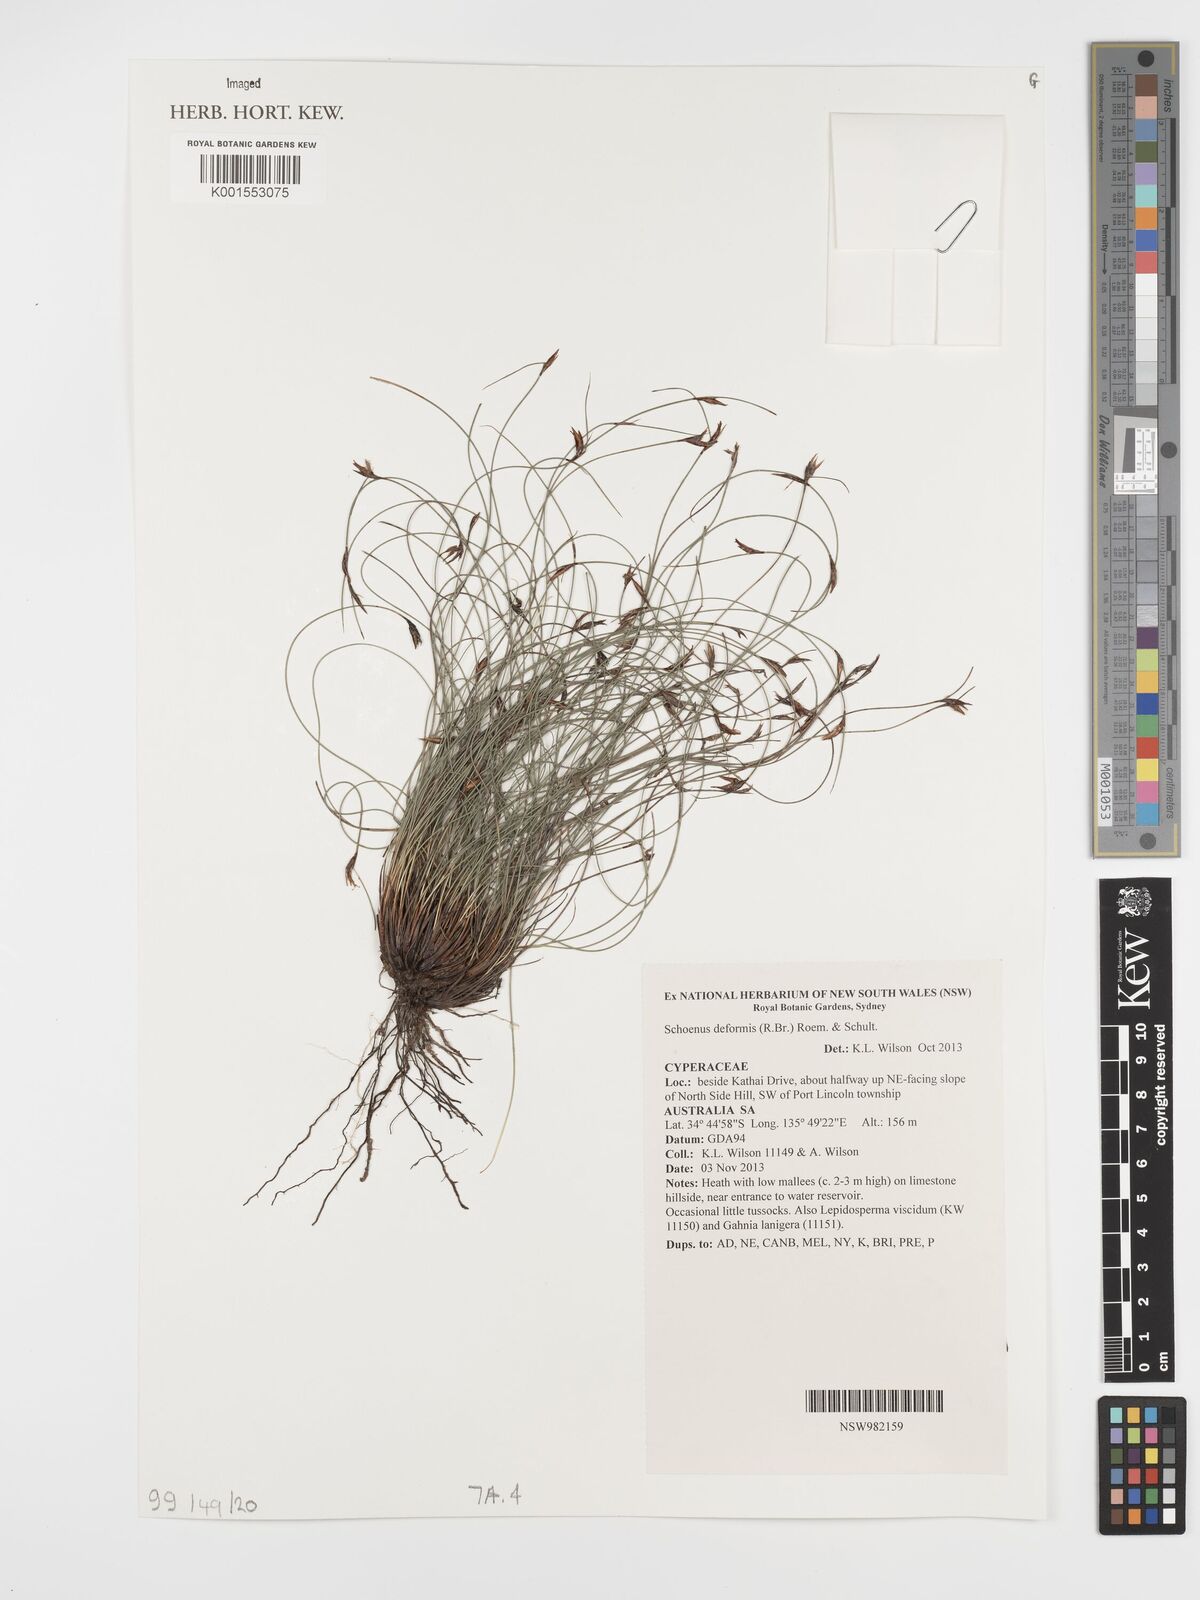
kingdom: Plantae
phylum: Tracheophyta
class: Liliopsida
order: Poales
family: Cyperaceae
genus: Schoenus
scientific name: Schoenus deformis
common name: Bog sedge
